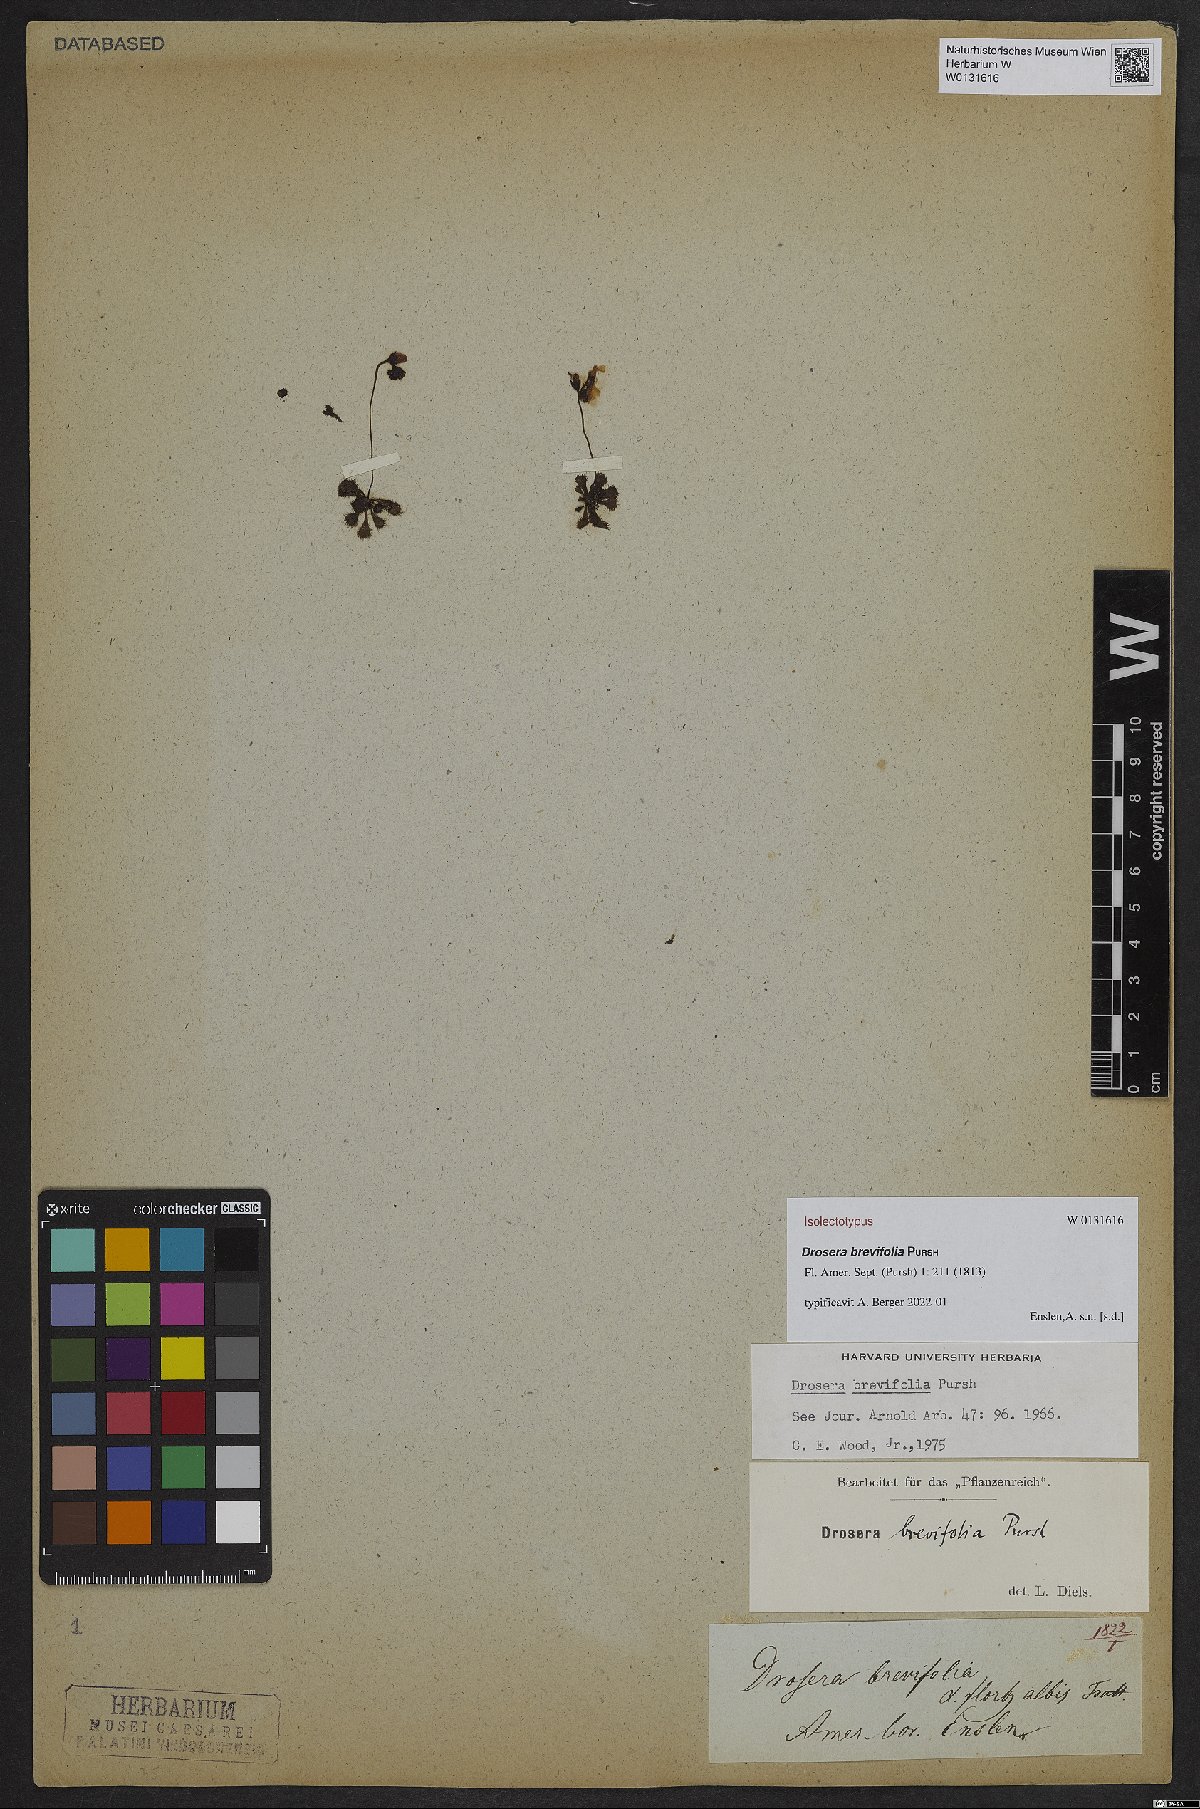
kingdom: Plantae
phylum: Tracheophyta
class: Magnoliopsida
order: Caryophyllales
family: Droseraceae
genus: Drosera
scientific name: Drosera brevifolia
